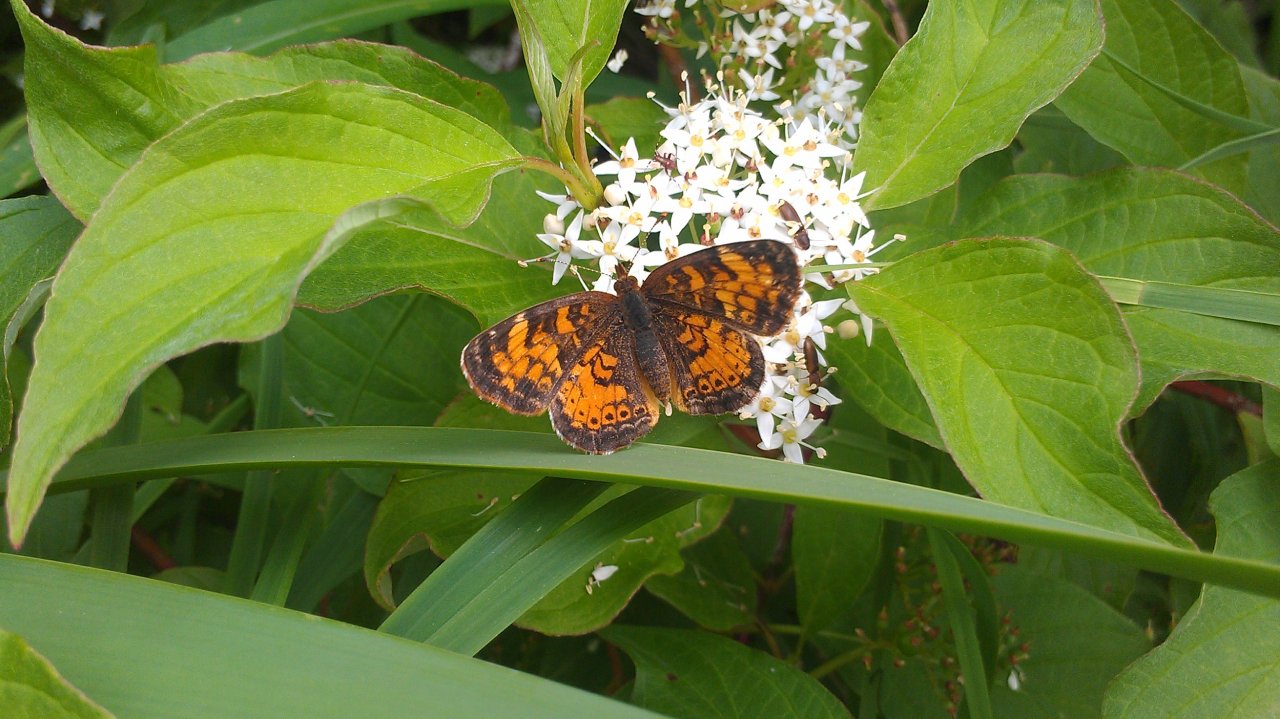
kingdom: Animalia
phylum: Arthropoda
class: Insecta
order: Lepidoptera
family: Nymphalidae
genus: Phyciodes
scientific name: Phyciodes tharos
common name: Northern Crescent
